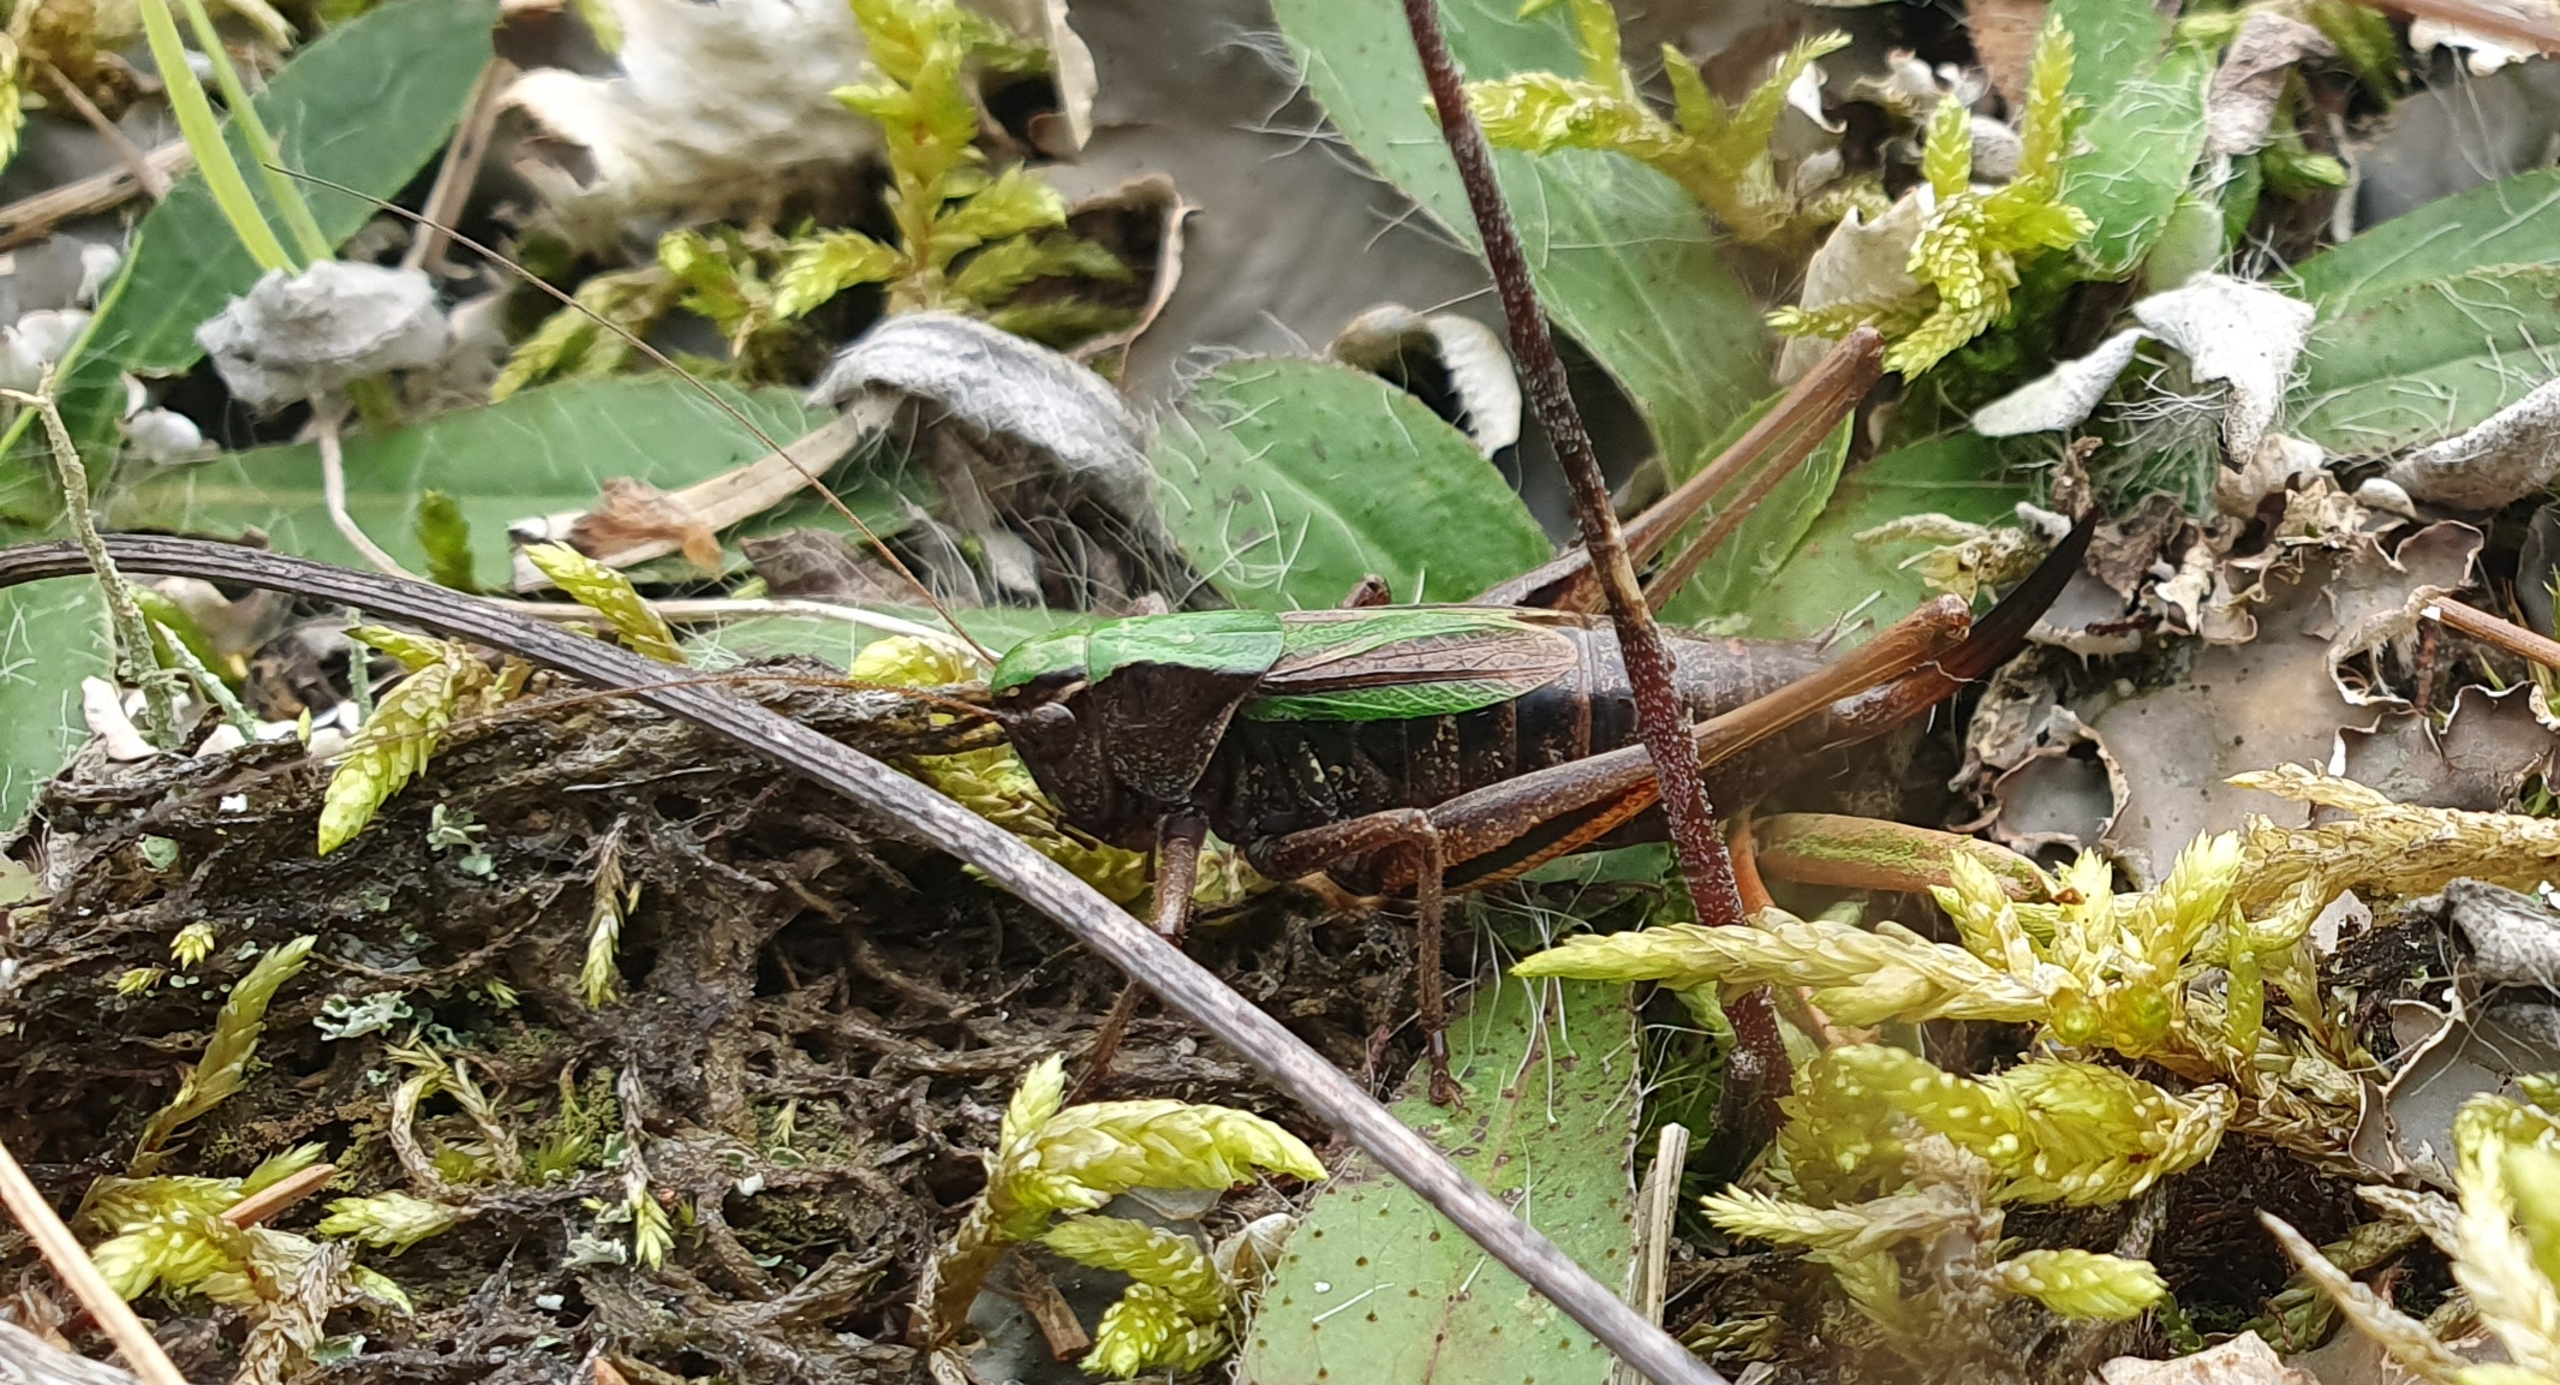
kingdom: Animalia
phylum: Arthropoda
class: Insecta
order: Orthoptera
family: Tettigoniidae
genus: Metrioptera
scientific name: Metrioptera brachyptera
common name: Hedegræshoppe
